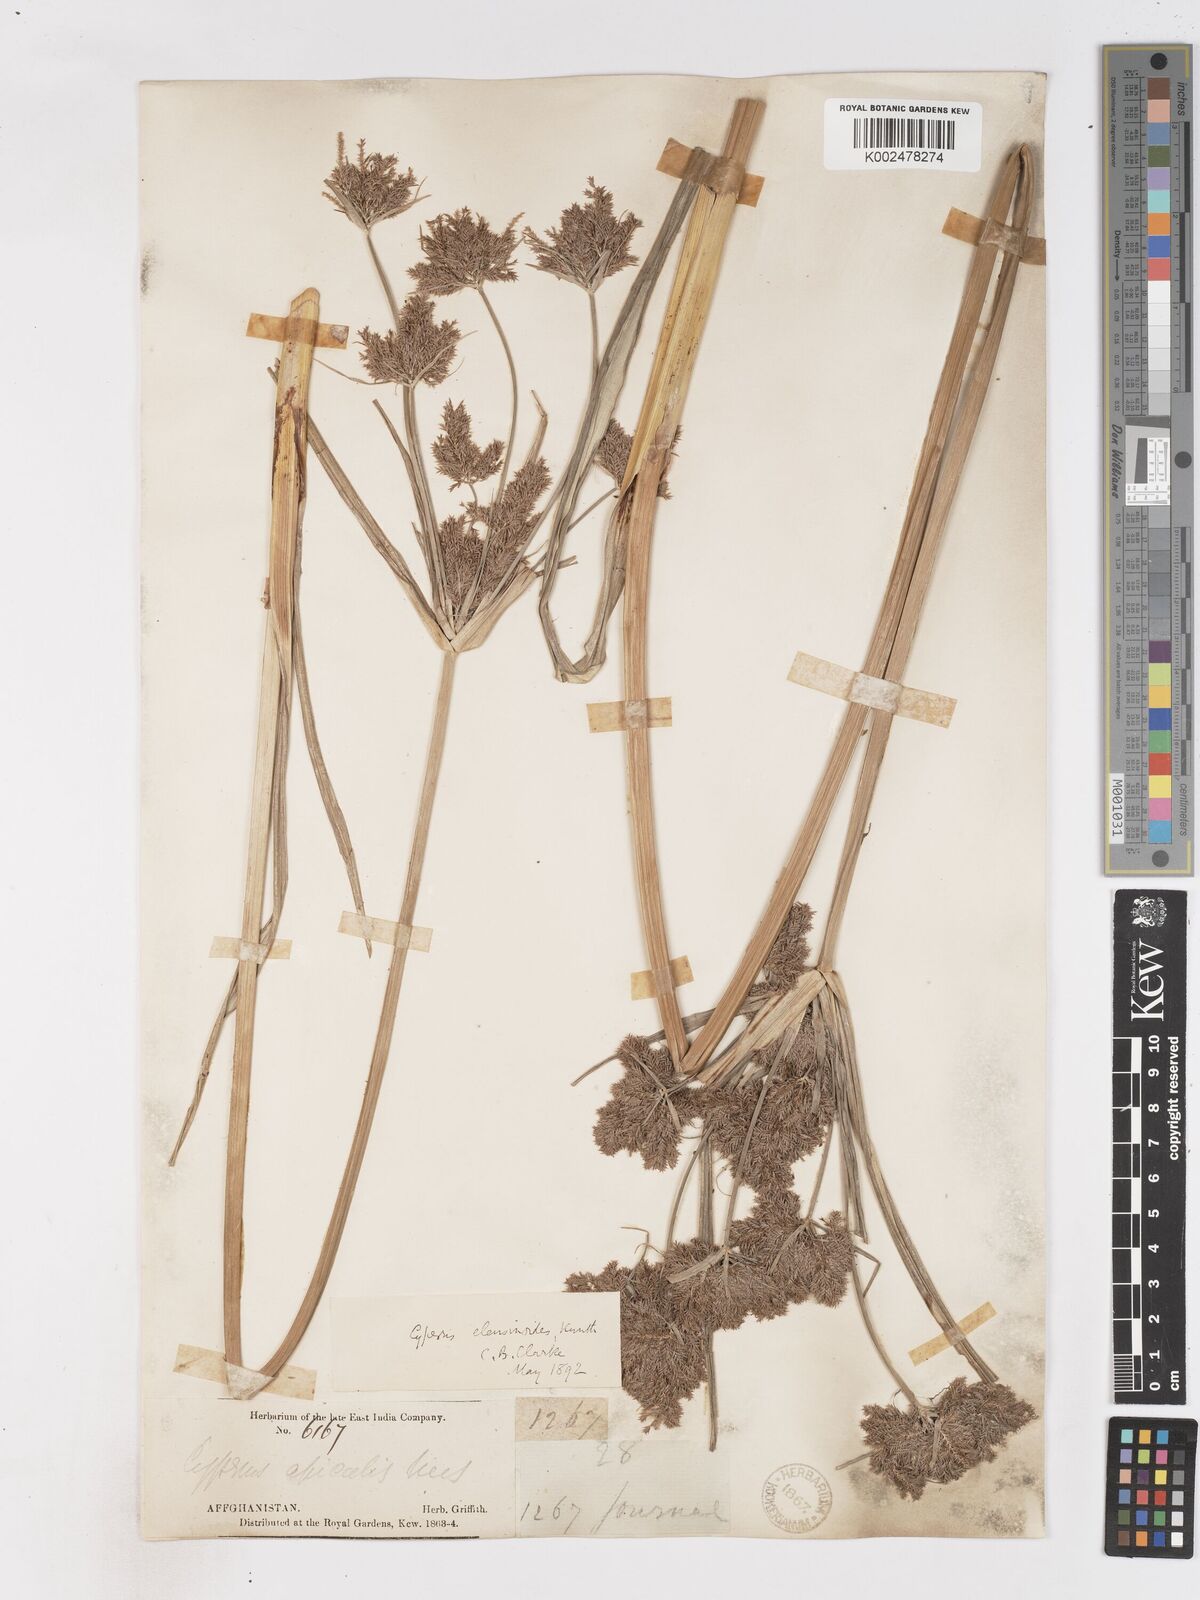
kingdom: Plantae
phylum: Tracheophyta
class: Liliopsida
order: Poales
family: Cyperaceae
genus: Cyperus
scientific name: Cyperus nutans
